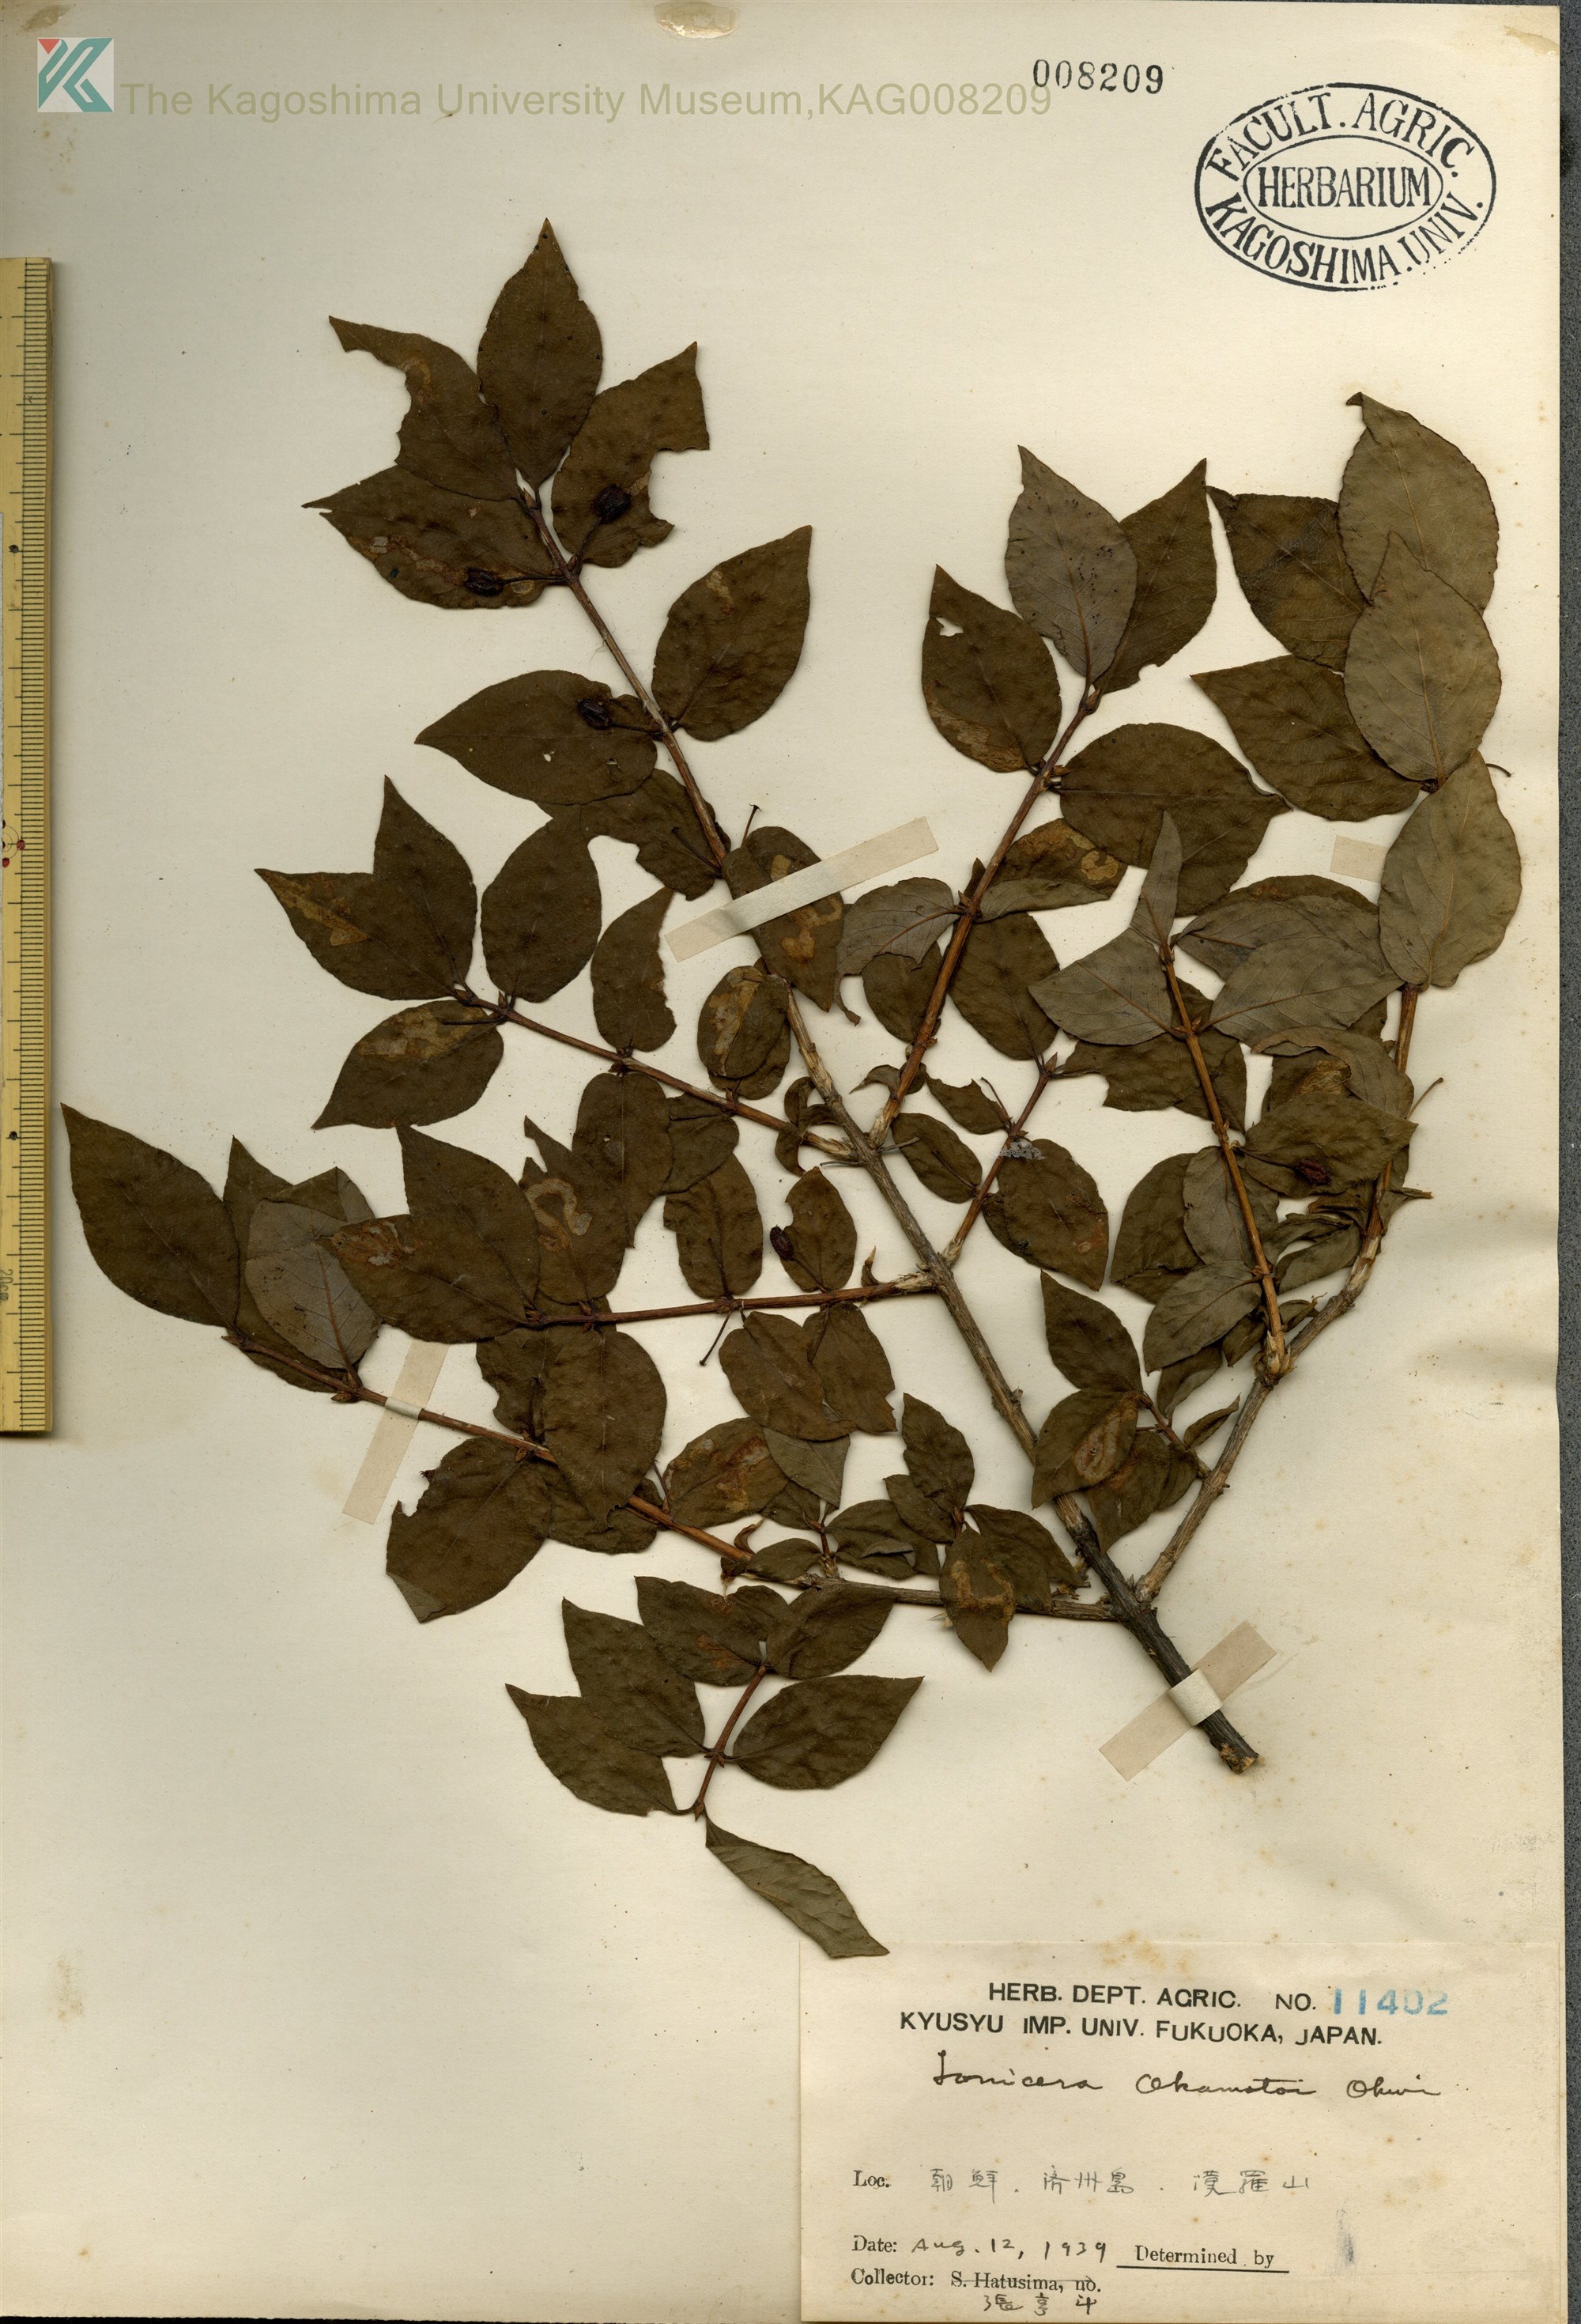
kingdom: Plantae
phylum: Tracheophyta
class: Magnoliopsida
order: Dipsacales
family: Caprifoliaceae
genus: Lonicera
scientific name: Lonicera
